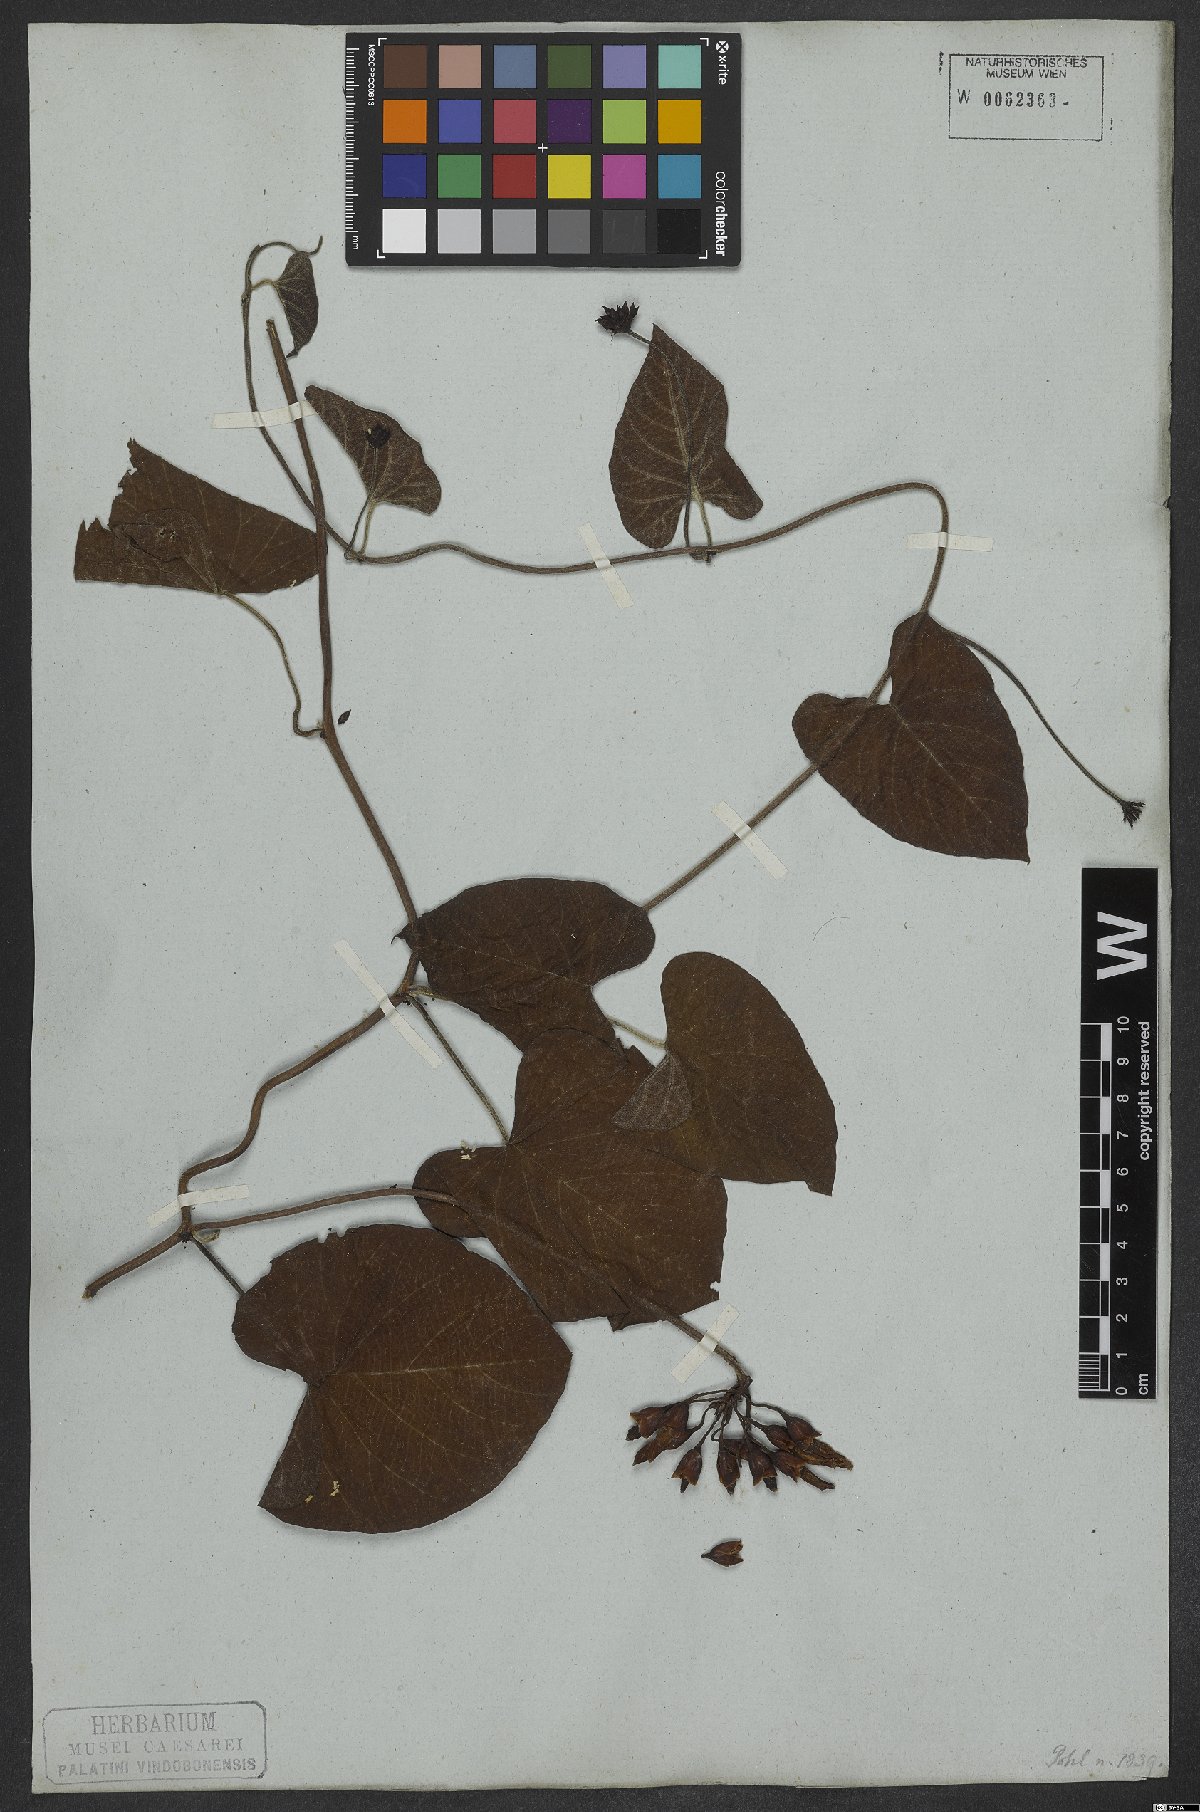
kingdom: Plantae
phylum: Tracheophyta
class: Magnoliopsida
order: Solanales
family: Convolvulaceae
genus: Distimake
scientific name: Distimake tomentosus
